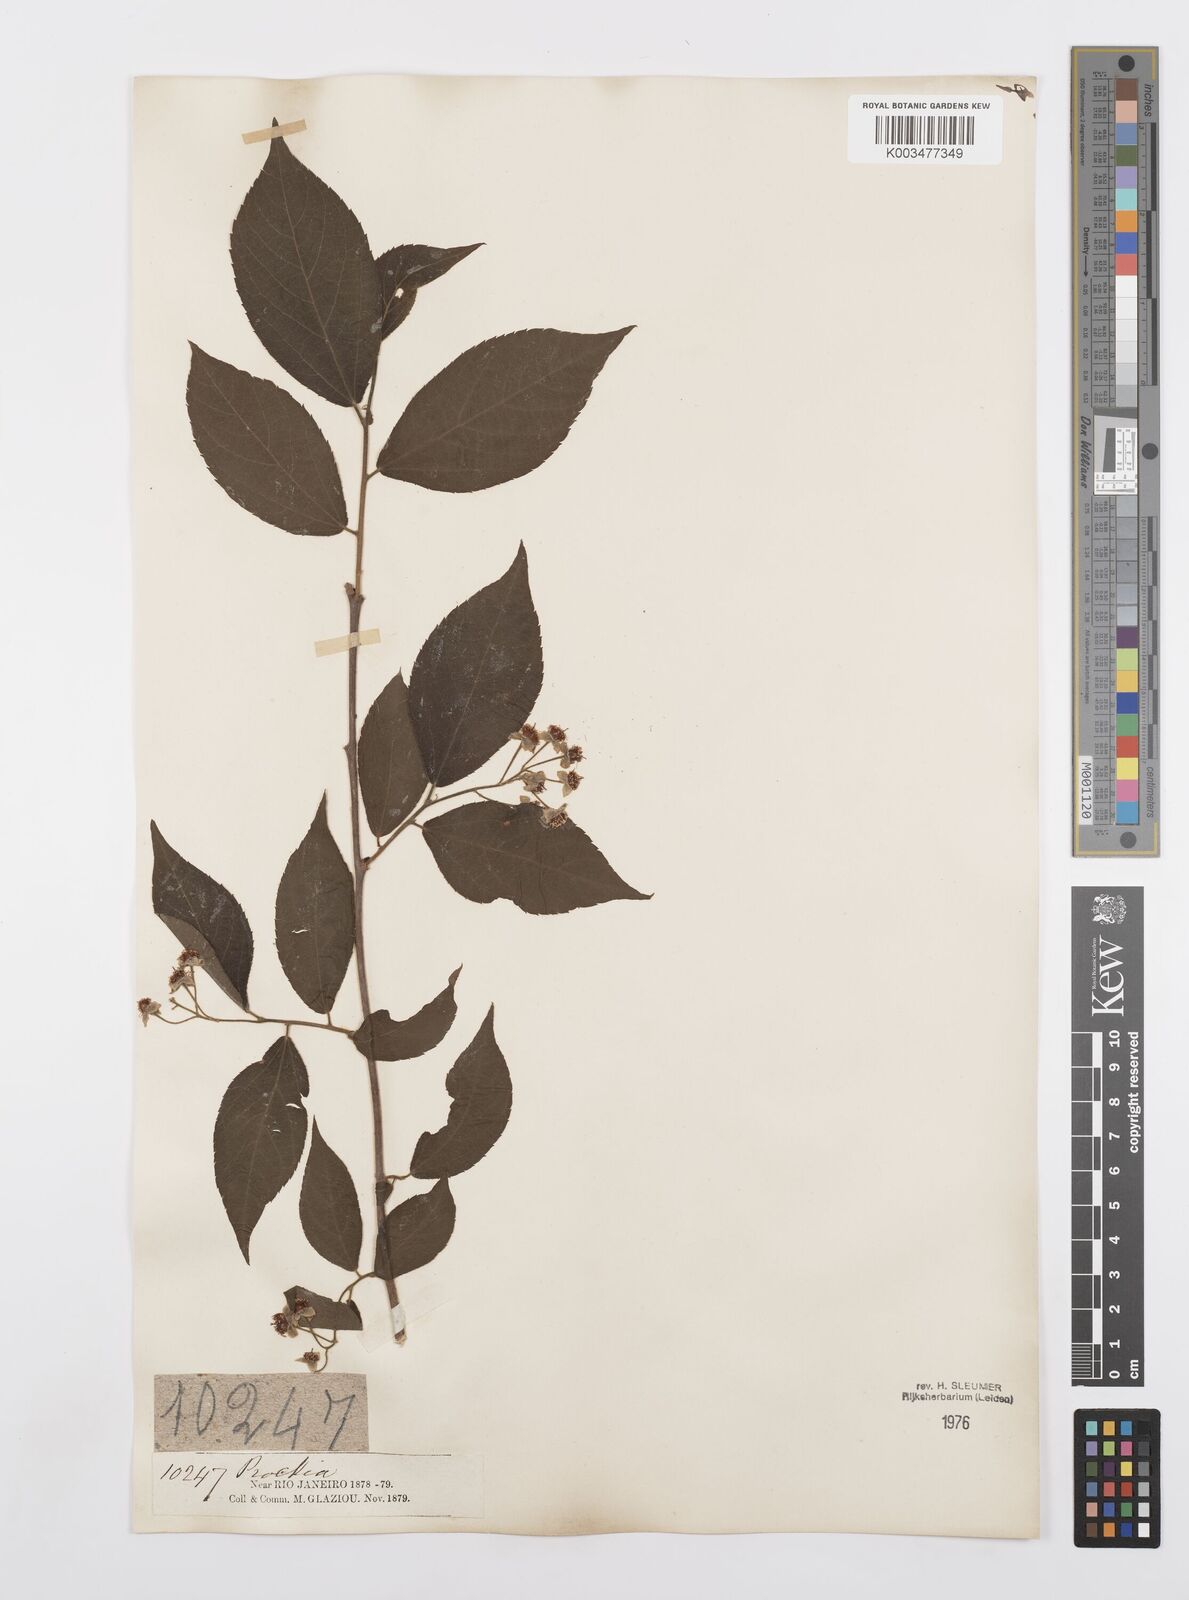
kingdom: Plantae
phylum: Tracheophyta
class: Magnoliopsida
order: Malpighiales
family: Salicaceae
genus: Prockia
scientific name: Prockia crucis
